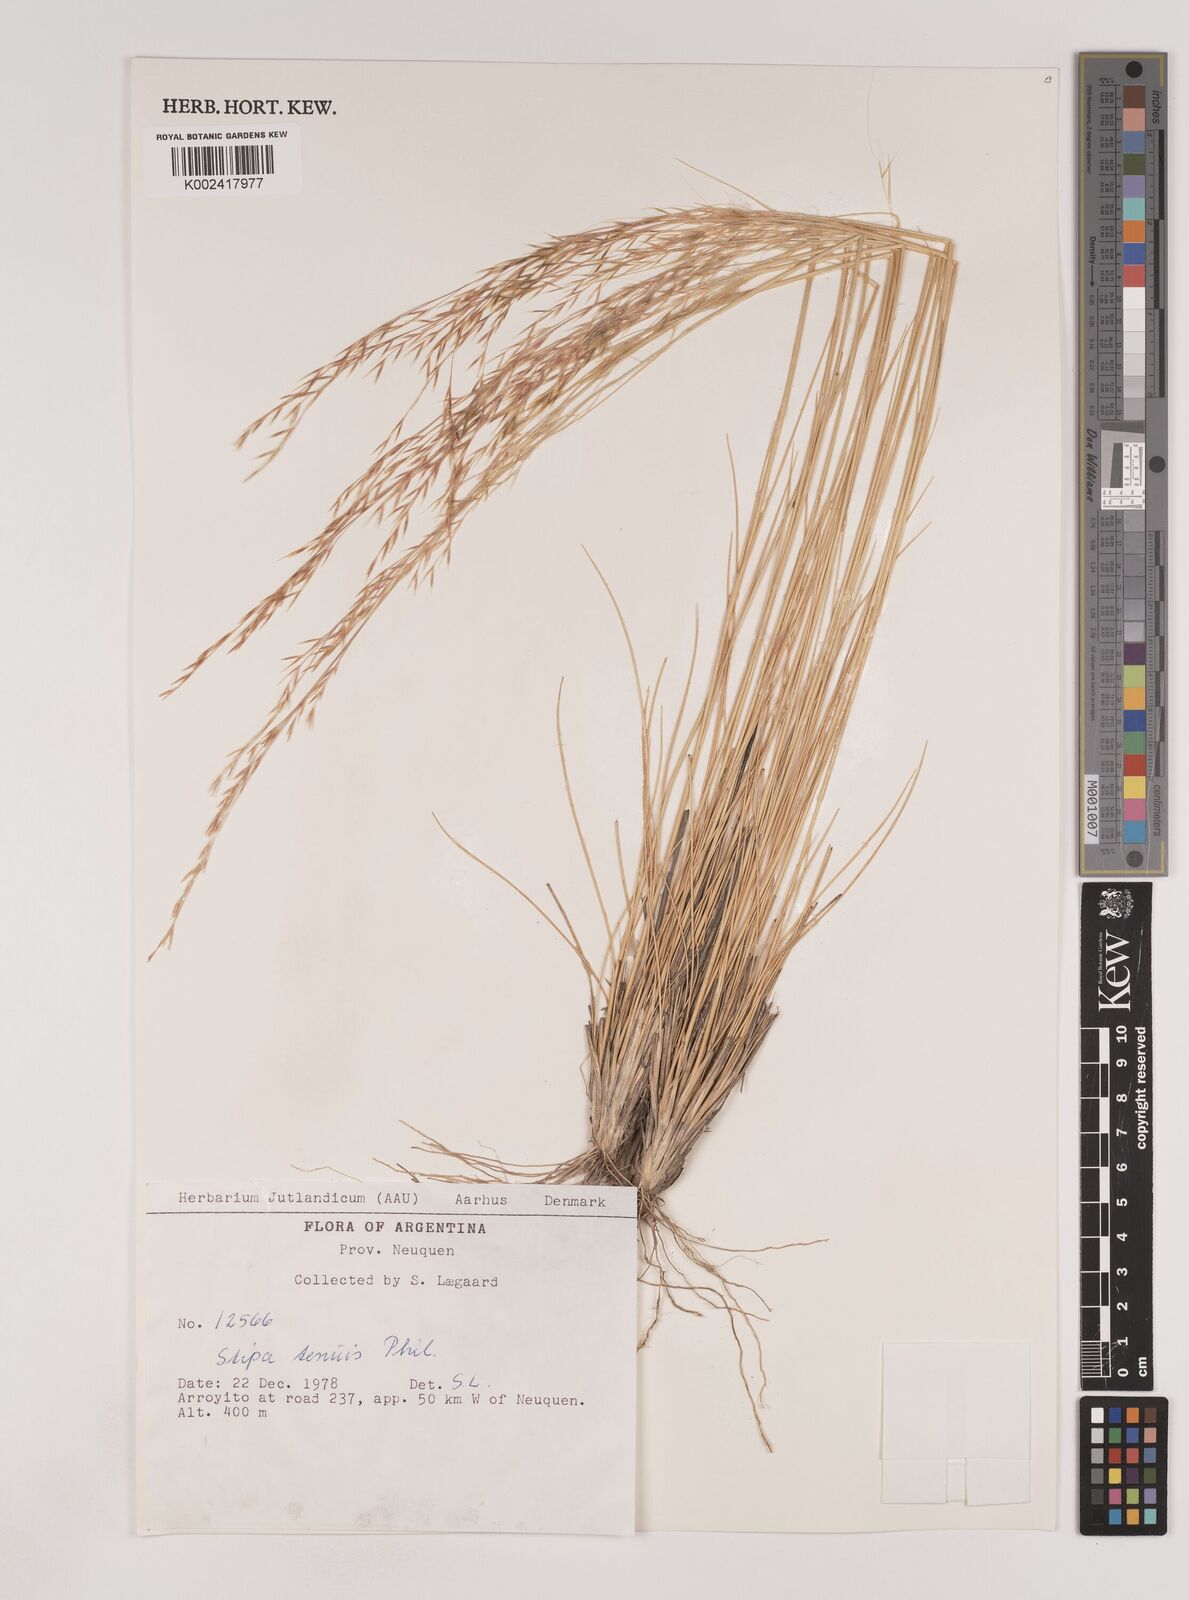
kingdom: Plantae
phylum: Tracheophyta
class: Liliopsida
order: Poales
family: Poaceae
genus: Nassella
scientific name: Nassella tenuis
